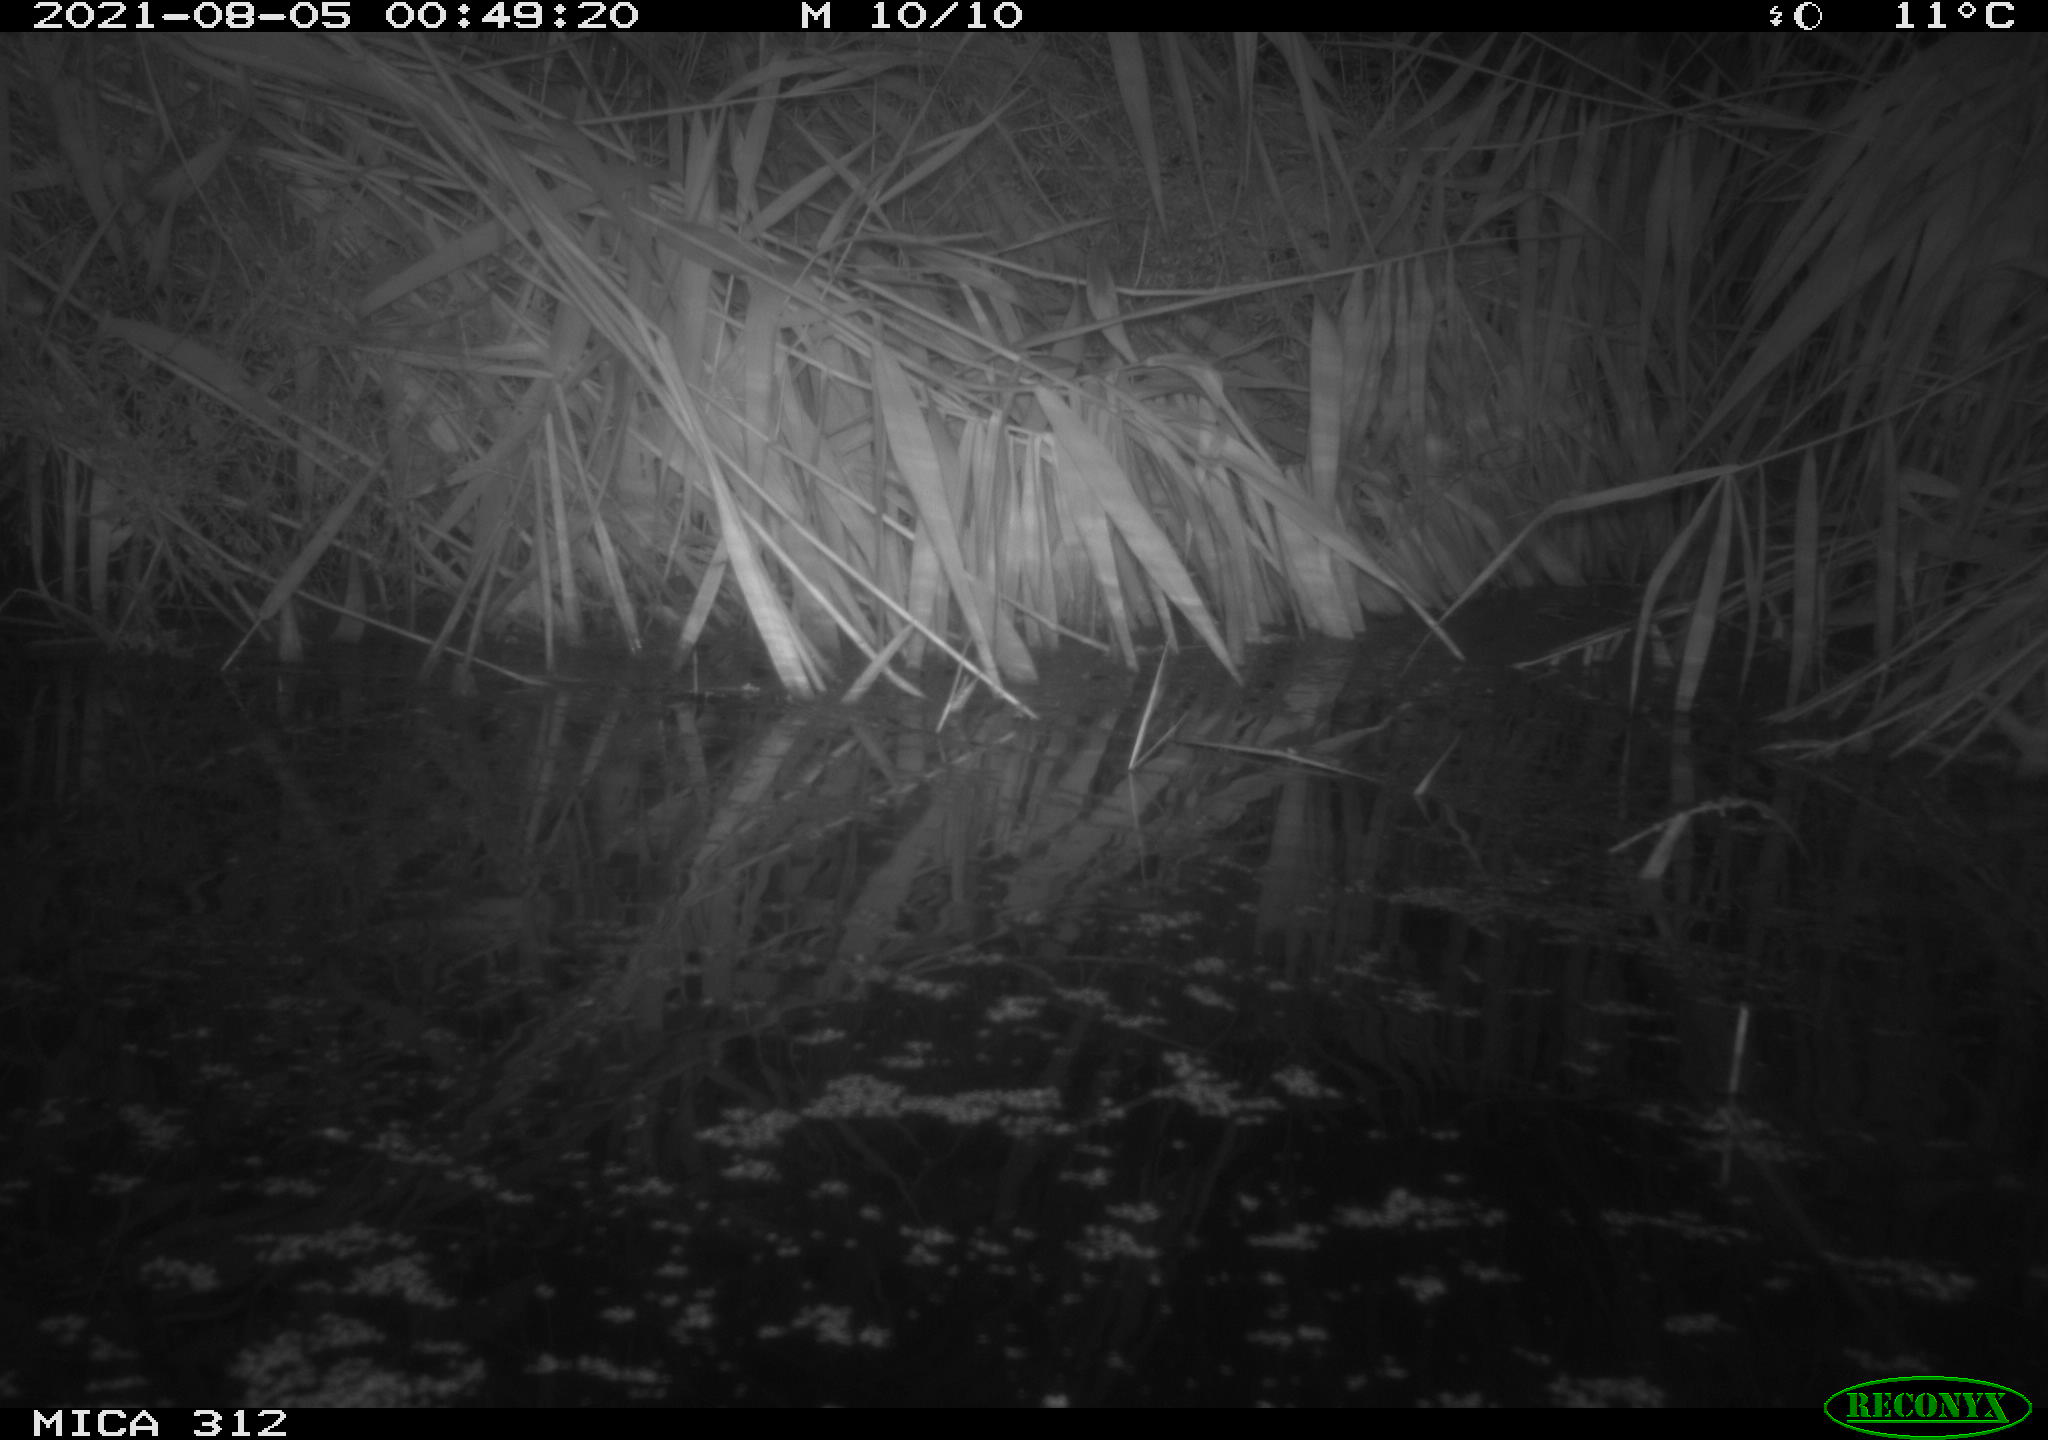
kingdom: Animalia
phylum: Chordata
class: Mammalia
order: Rodentia
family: Muridae
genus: Rattus
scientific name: Rattus norvegicus
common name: Brown rat
